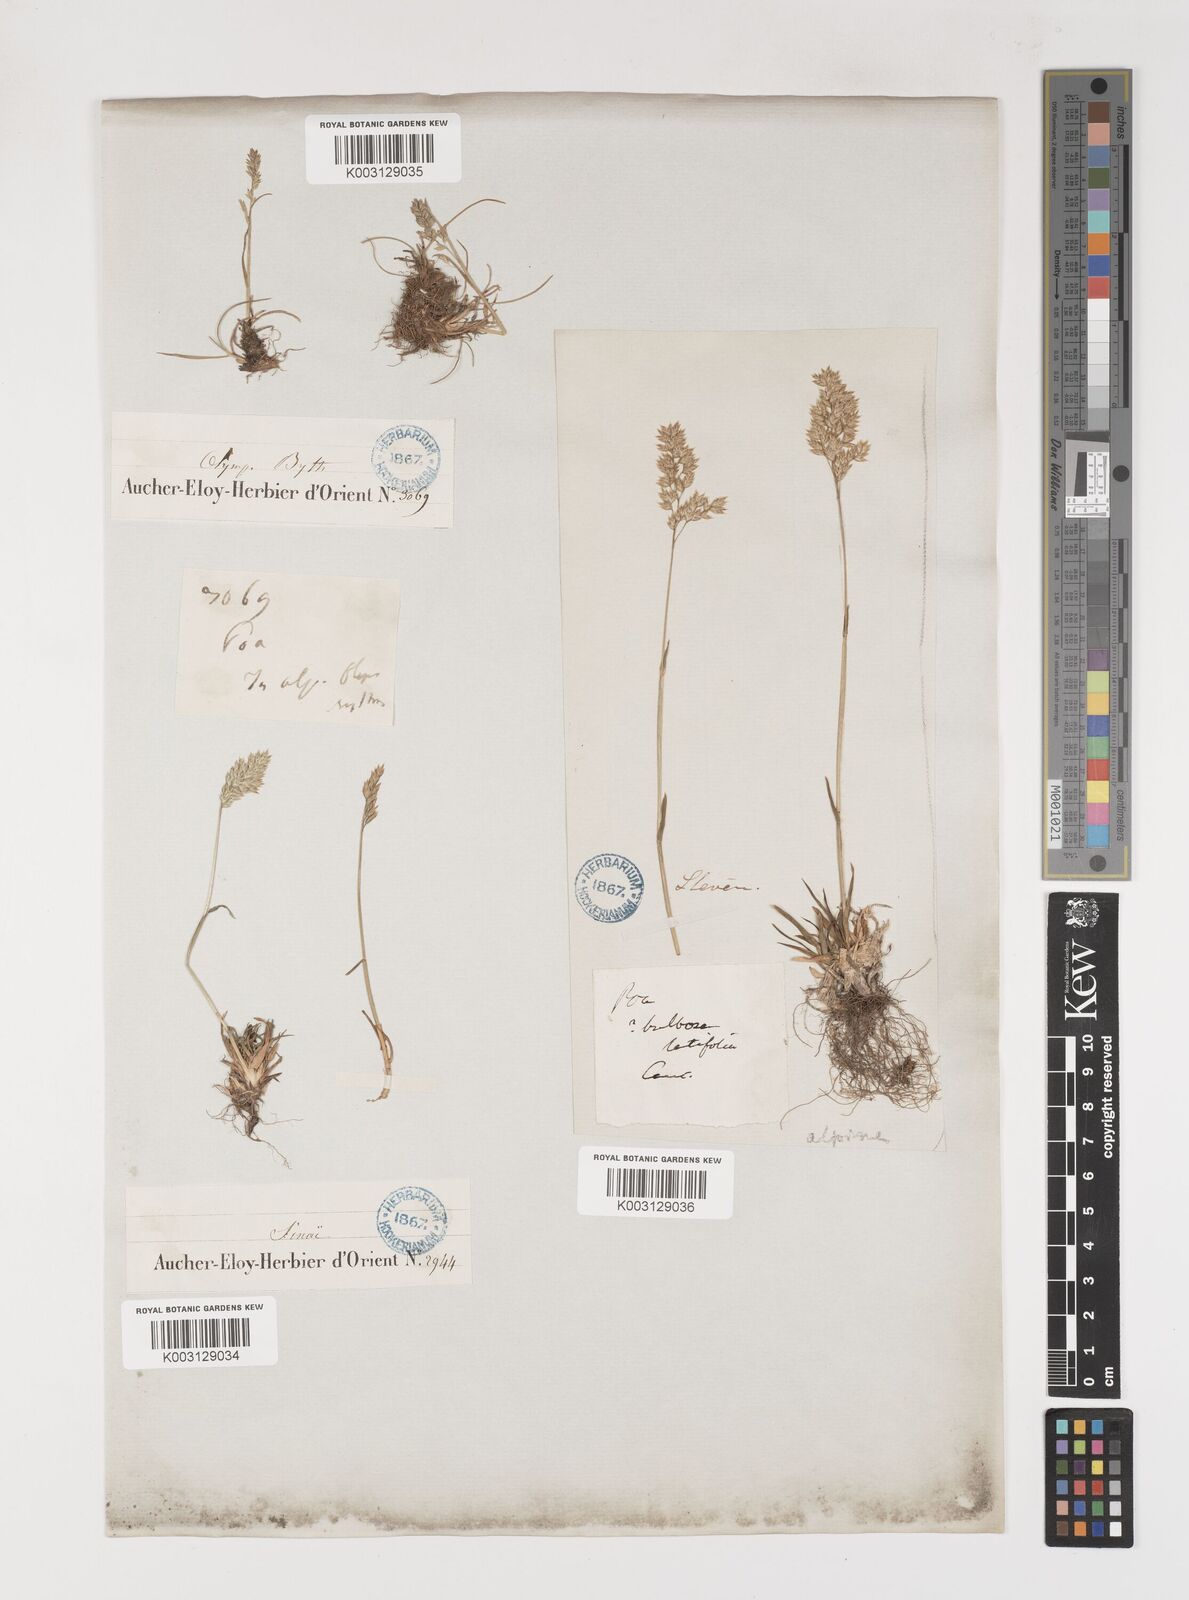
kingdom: Plantae
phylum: Tracheophyta
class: Liliopsida
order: Poales
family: Poaceae
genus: Poa
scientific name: Poa alpina
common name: Alpine bluegrass
